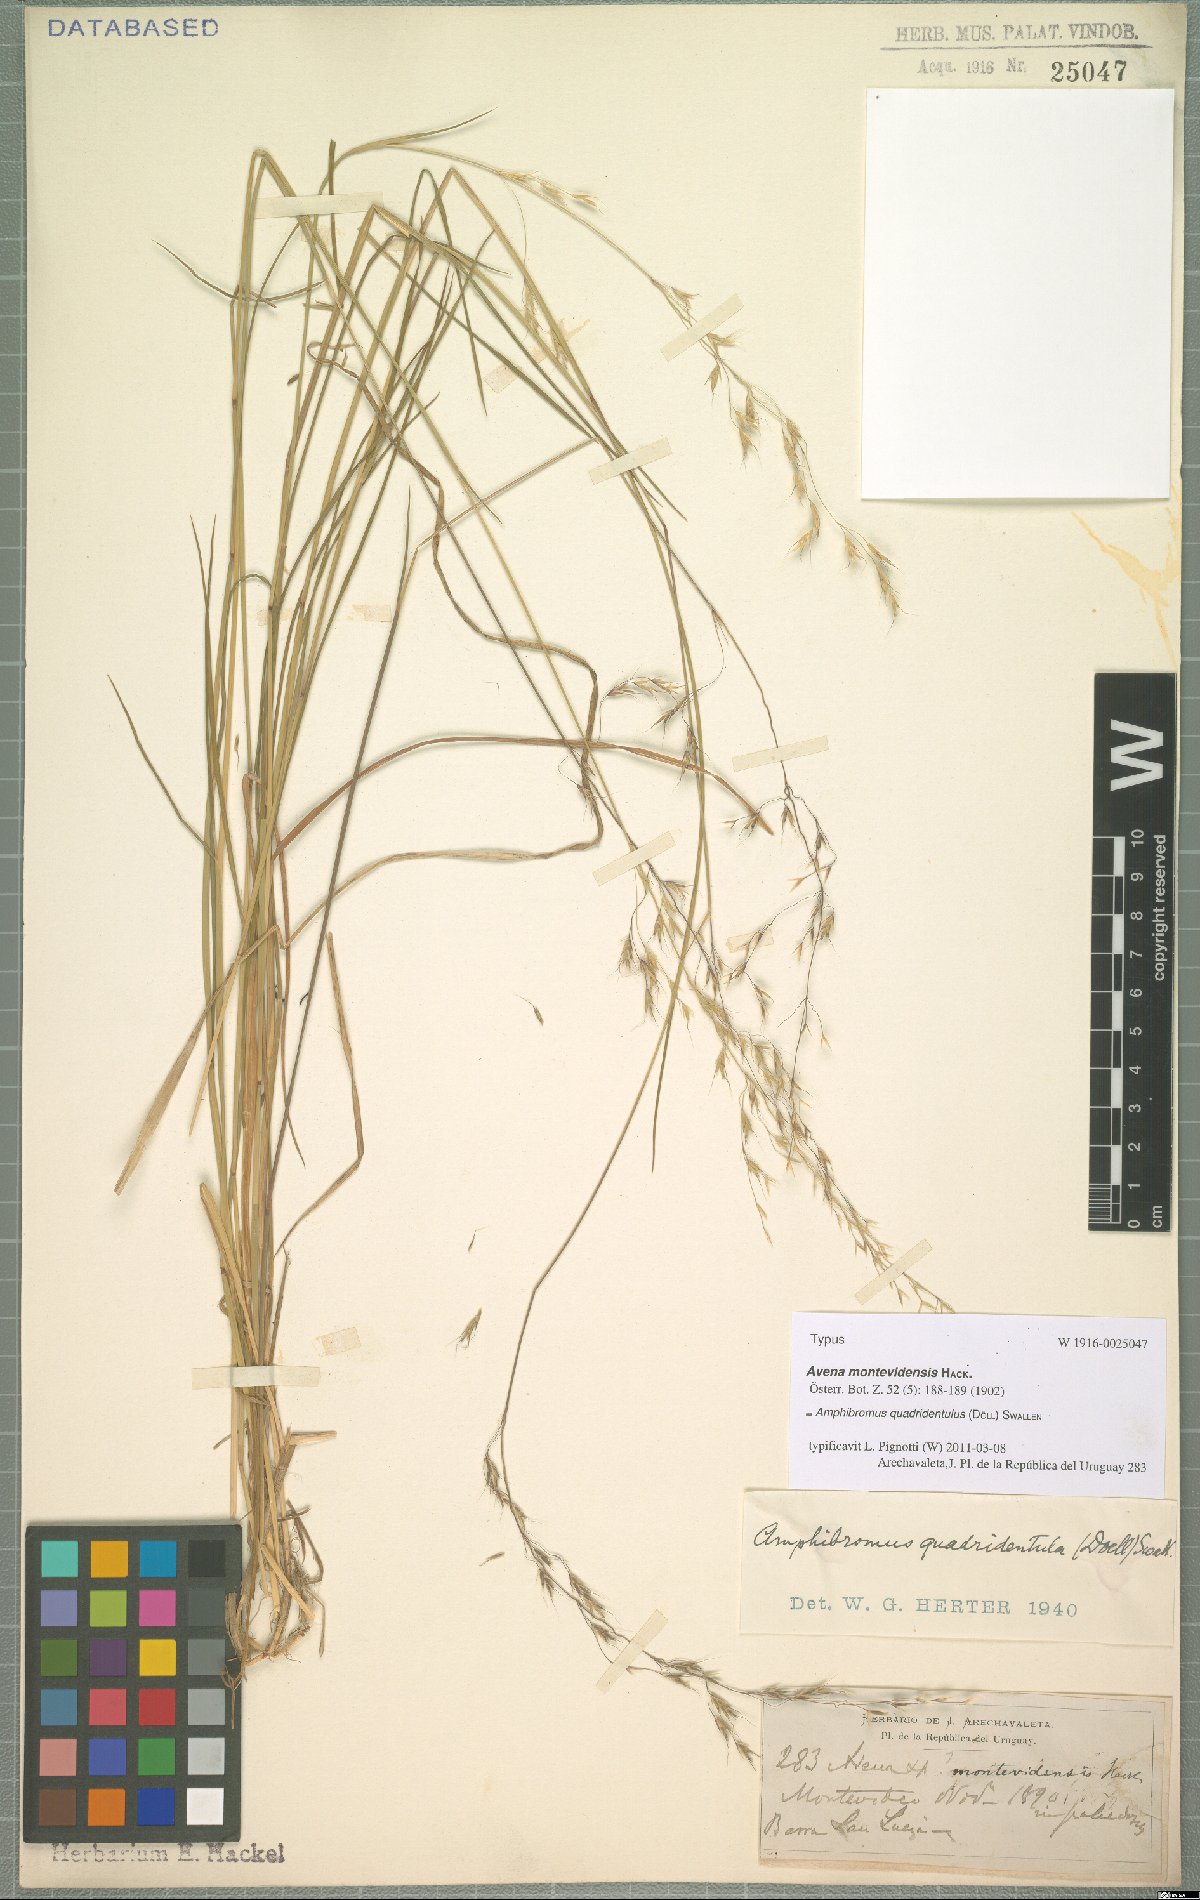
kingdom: Plantae
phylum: Tracheophyta
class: Liliopsida
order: Poales
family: Poaceae
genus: Amphibromus
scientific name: Amphibromus quadridentulus
